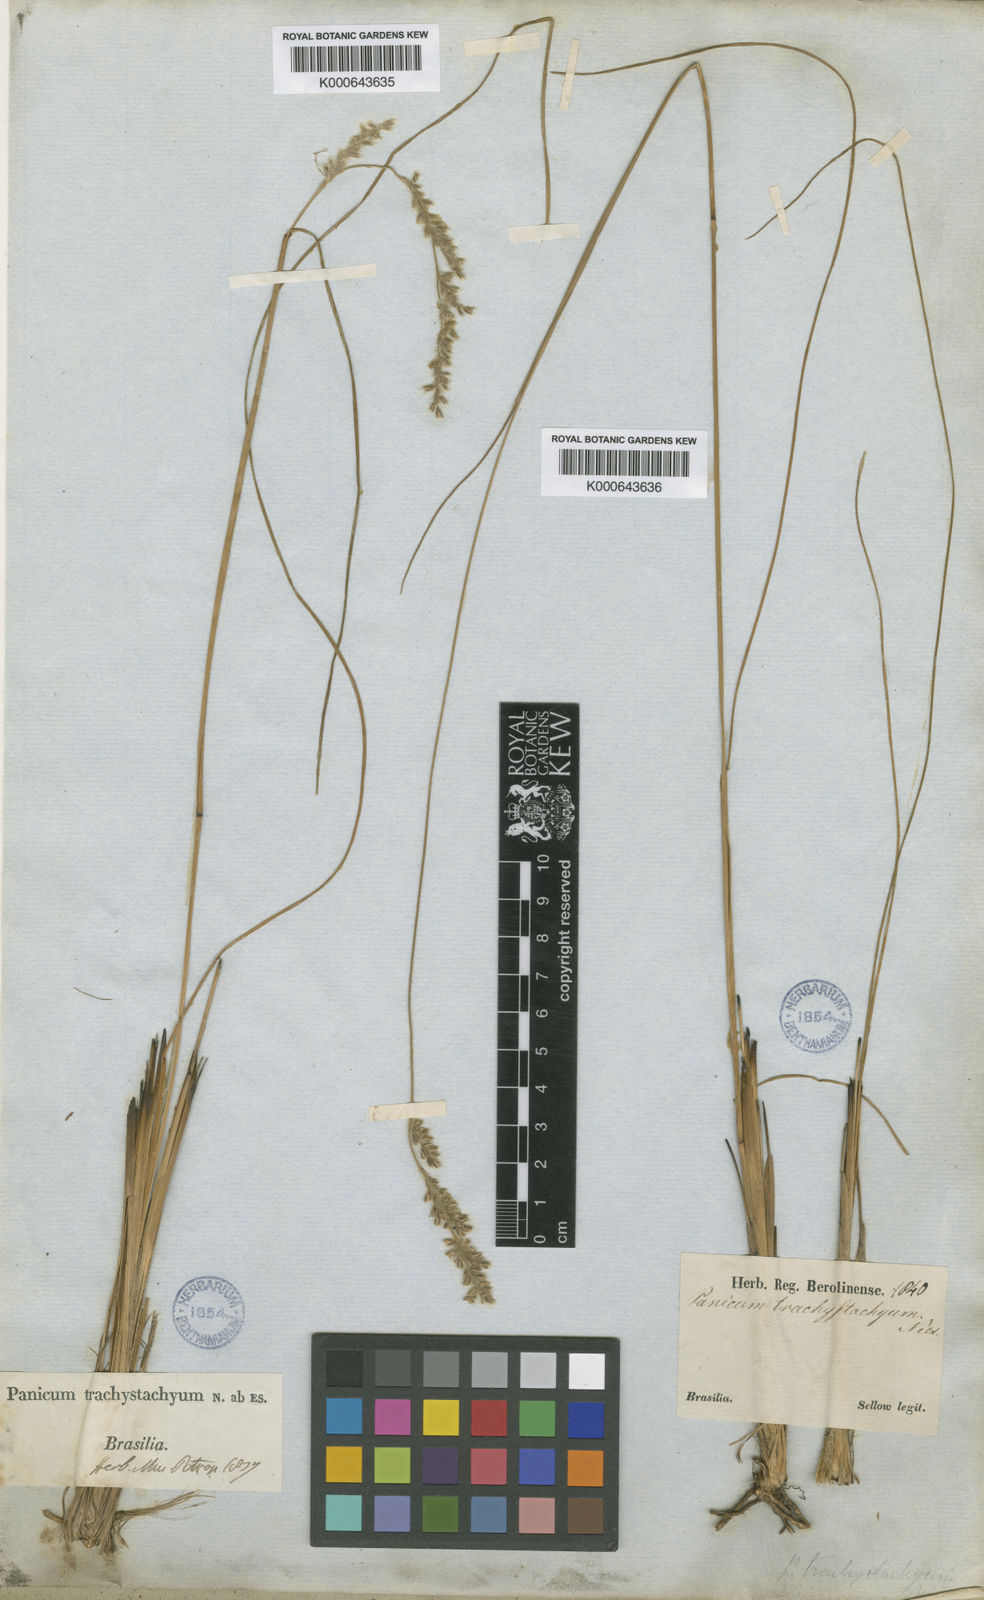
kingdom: Plantae
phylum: Tracheophyta
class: Liliopsida
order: Poales
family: Poaceae
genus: Anthaenantiopsis
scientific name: Anthaenantiopsis trachystachya
